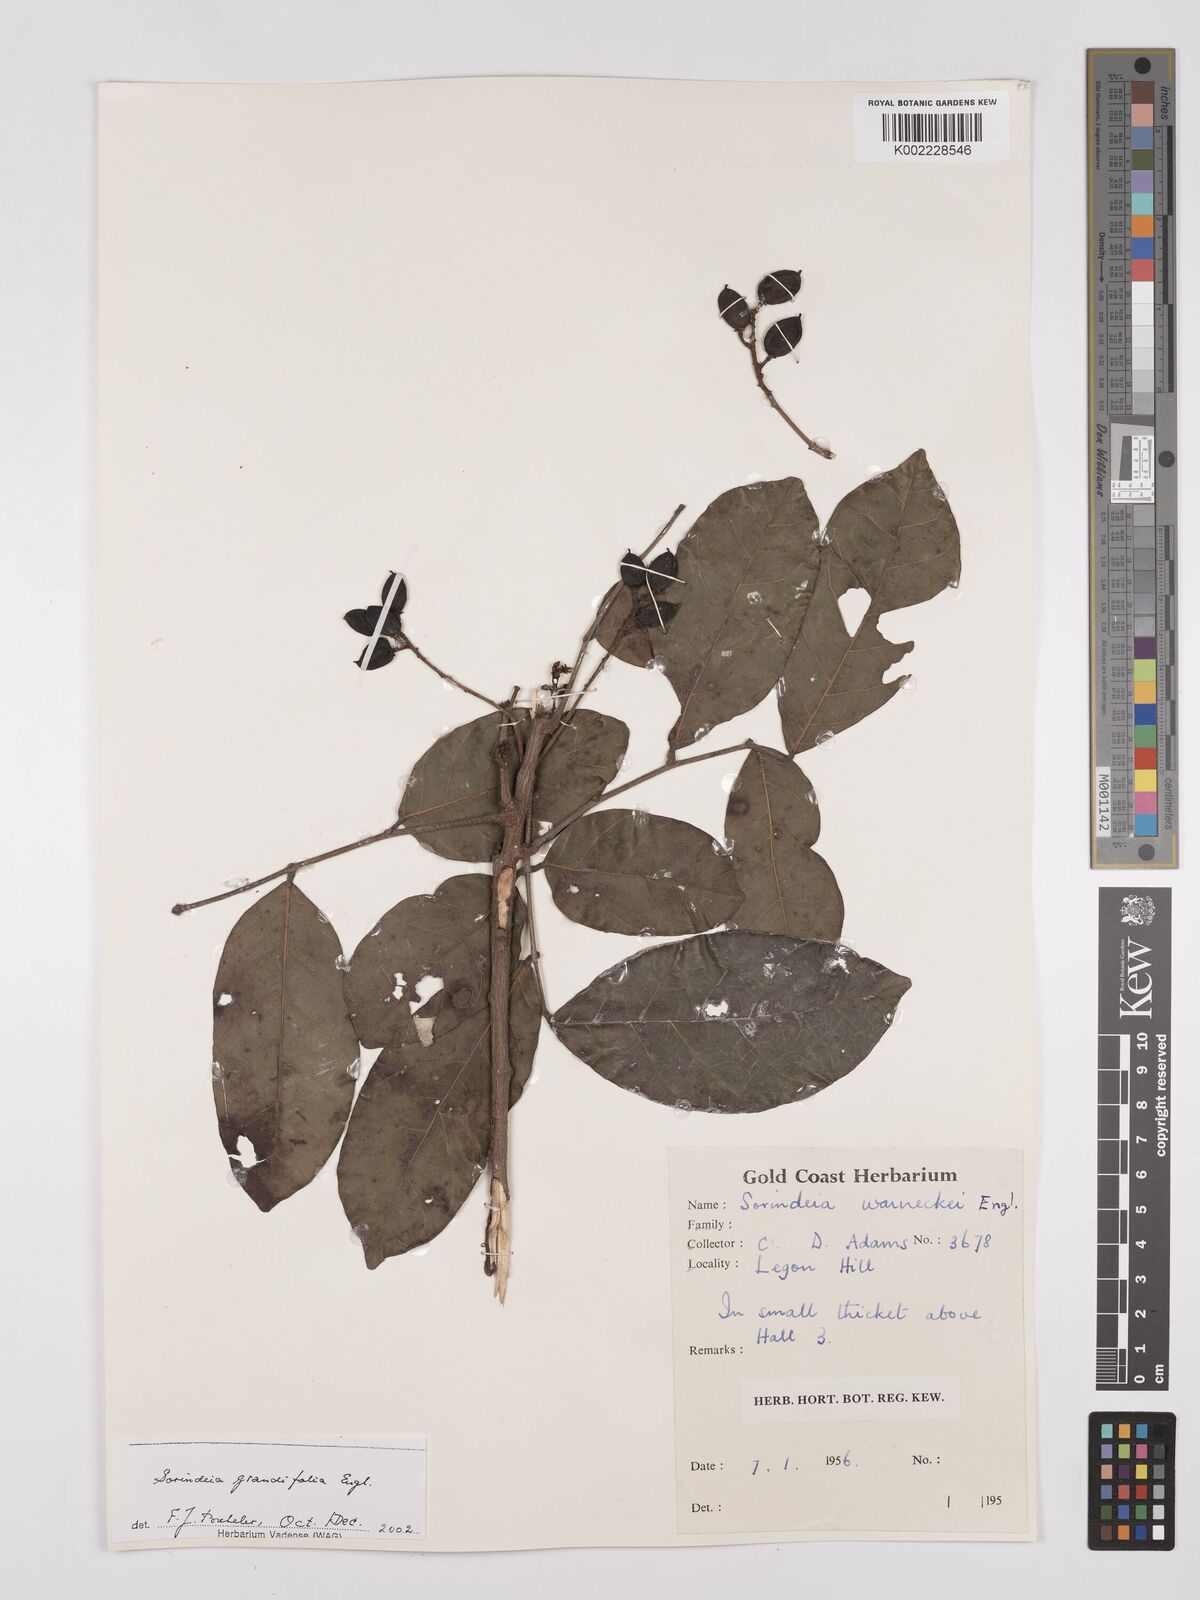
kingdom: Plantae
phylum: Tracheophyta
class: Magnoliopsida
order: Sapindales
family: Anacardiaceae
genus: Sorindeia
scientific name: Sorindeia grandifolia
